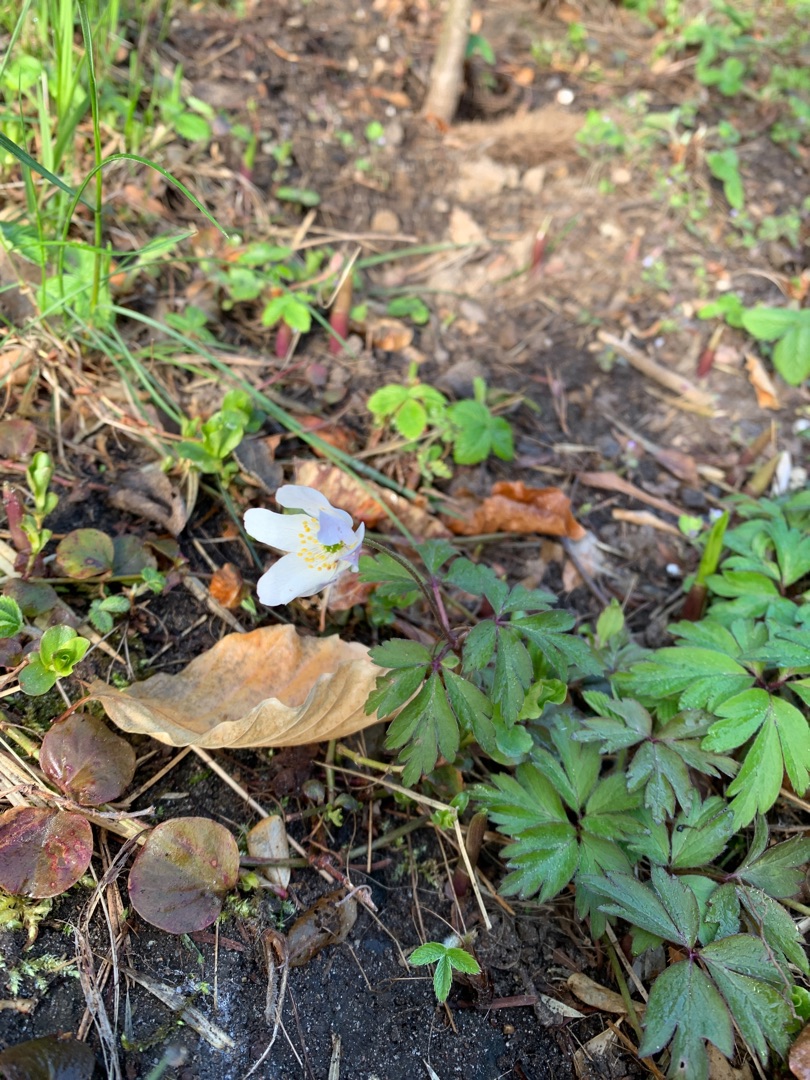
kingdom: Plantae
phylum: Tracheophyta
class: Magnoliopsida
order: Ranunculales
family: Ranunculaceae
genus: Anemone
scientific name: Anemone nemorosa
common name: Hvid anemone
